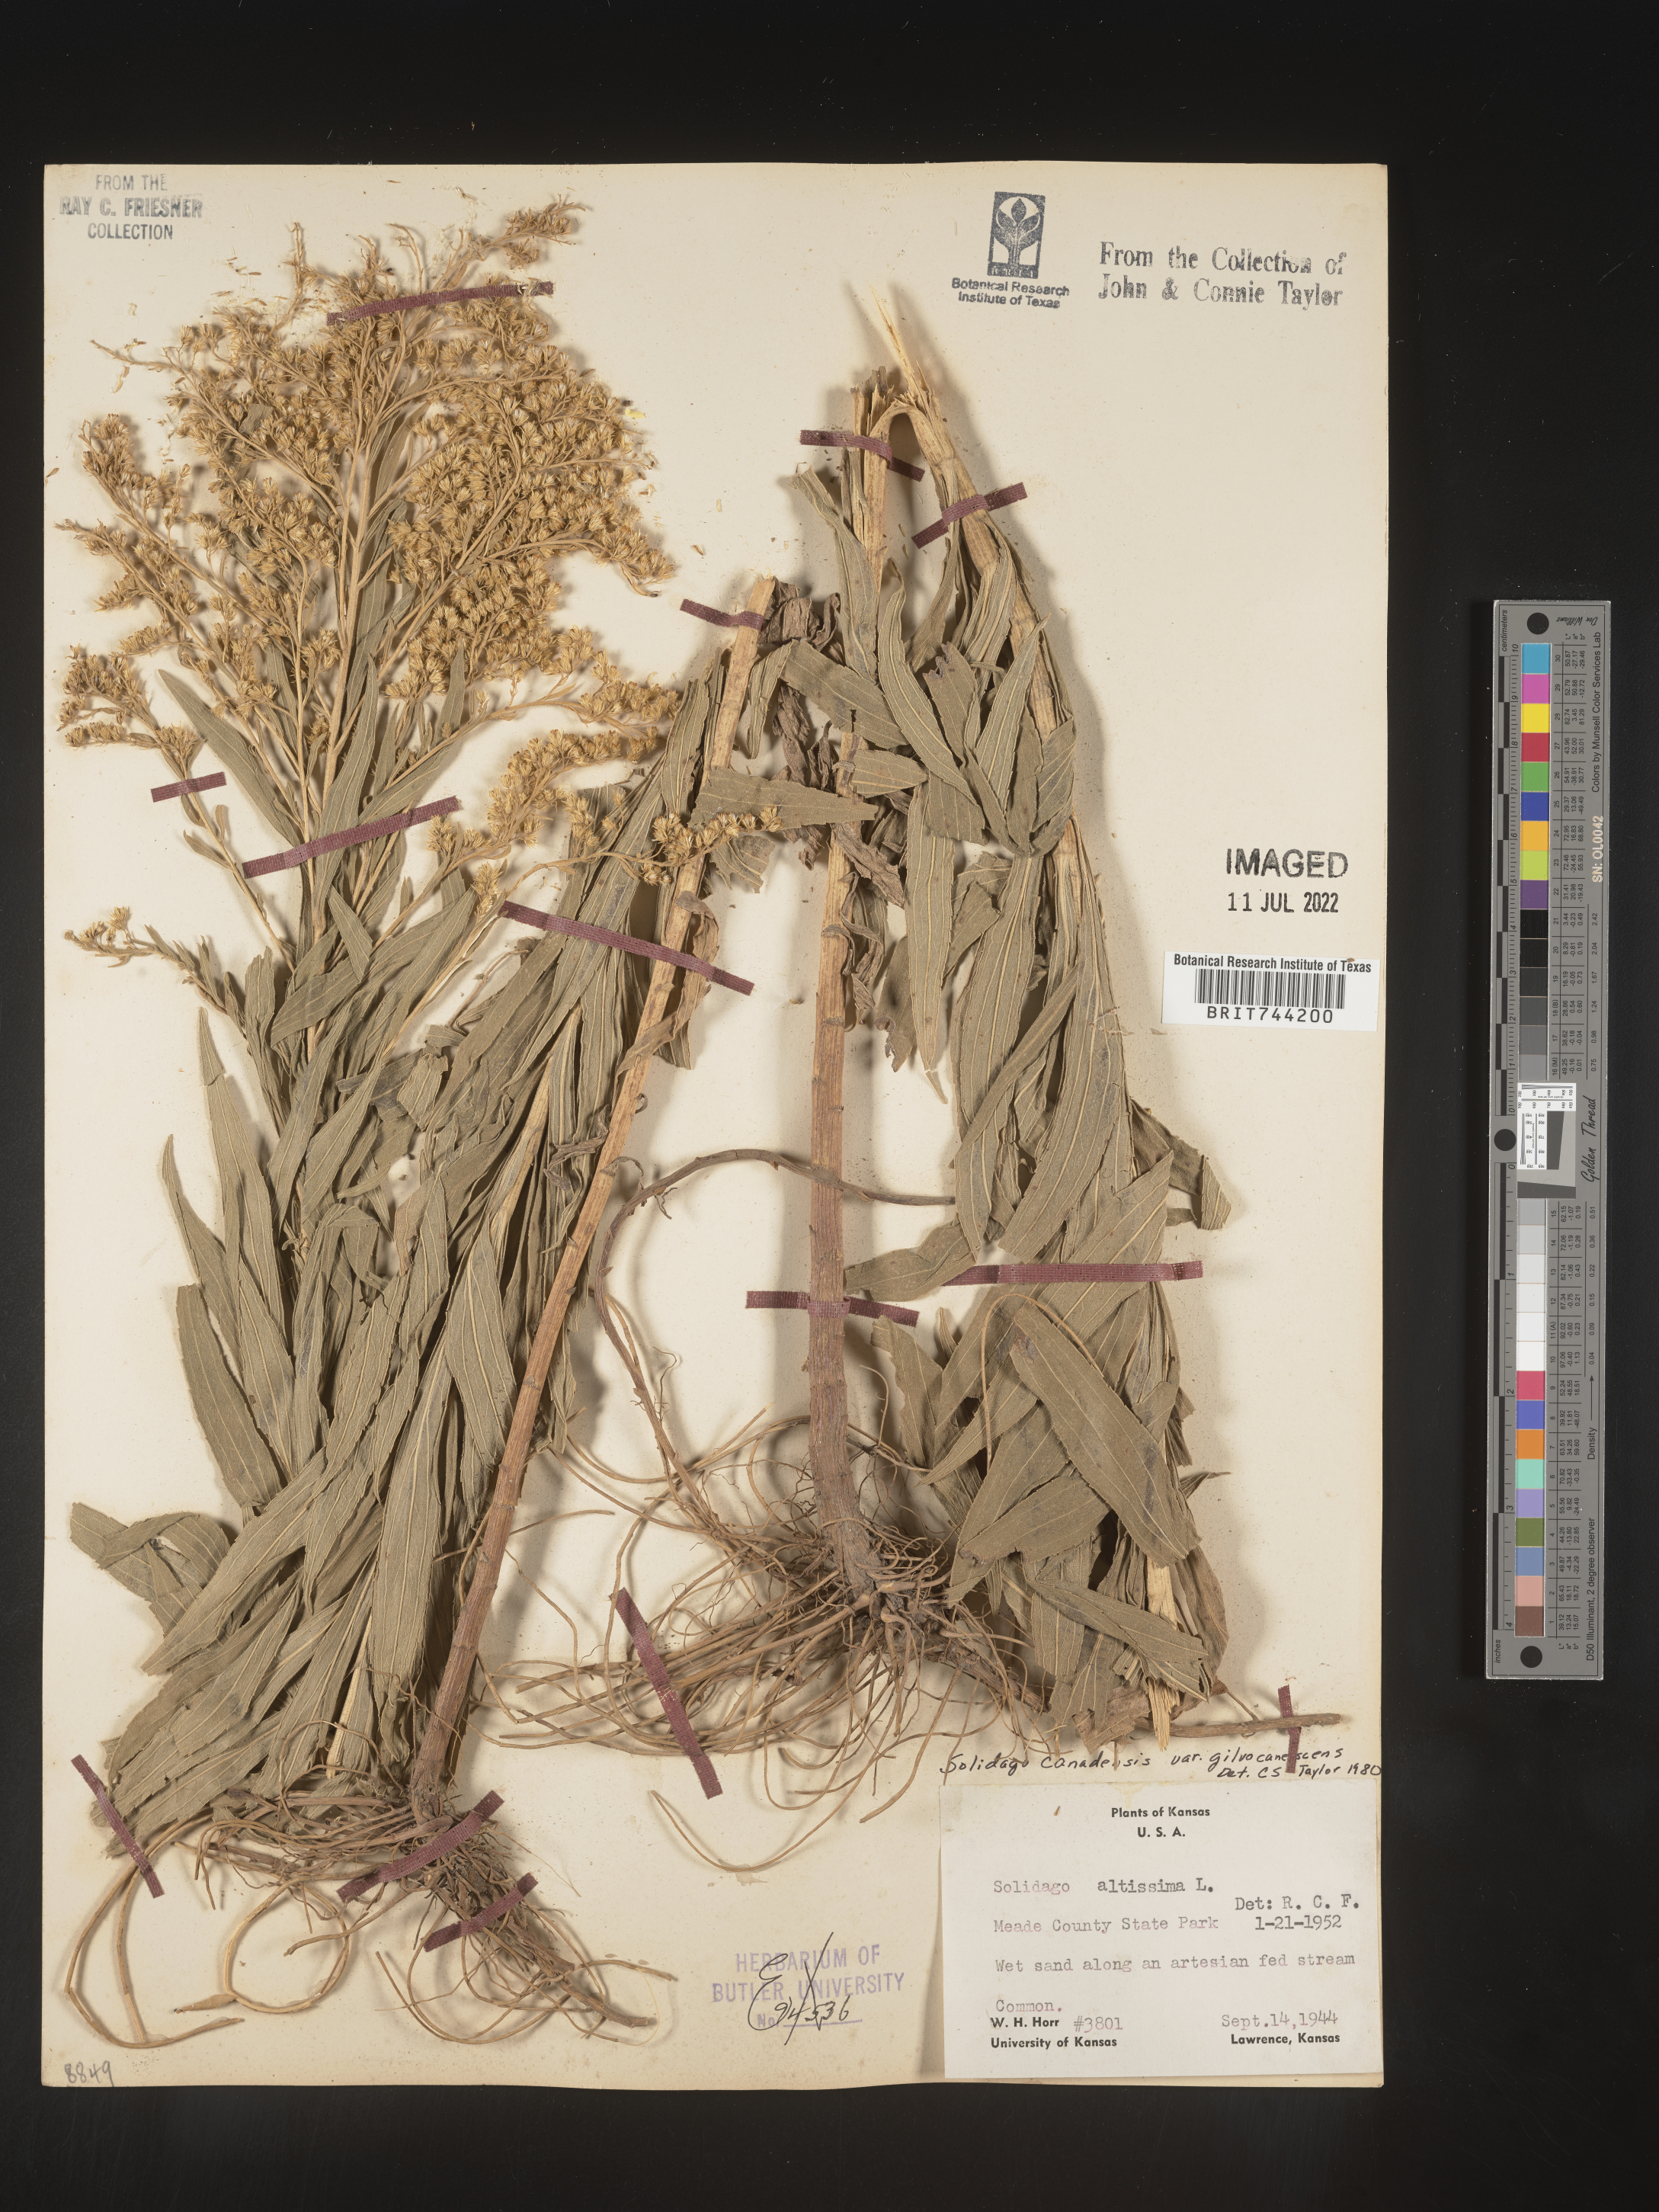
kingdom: Plantae
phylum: Tracheophyta
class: Magnoliopsida
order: Asterales
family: Asteraceae
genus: Solidago
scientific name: Solidago altissima
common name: Late goldenrod
